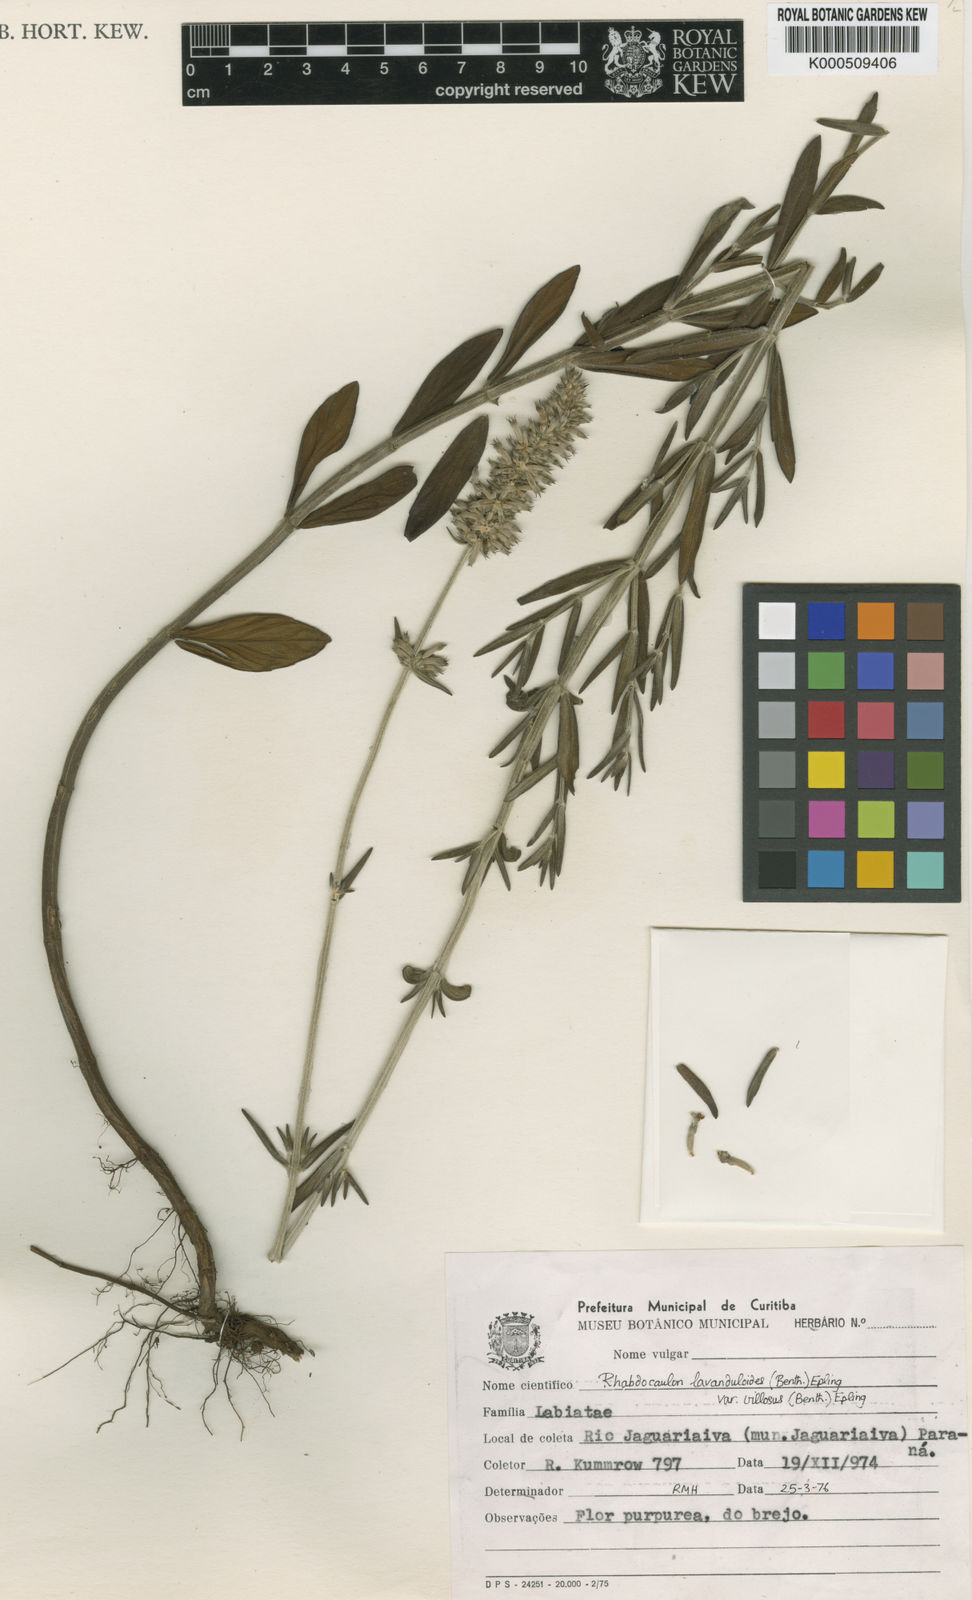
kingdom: Plantae
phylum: Tracheophyta
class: Magnoliopsida
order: Lamiales
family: Lamiaceae
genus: Rhabdocaulon
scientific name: Rhabdocaulon lavanduloides
